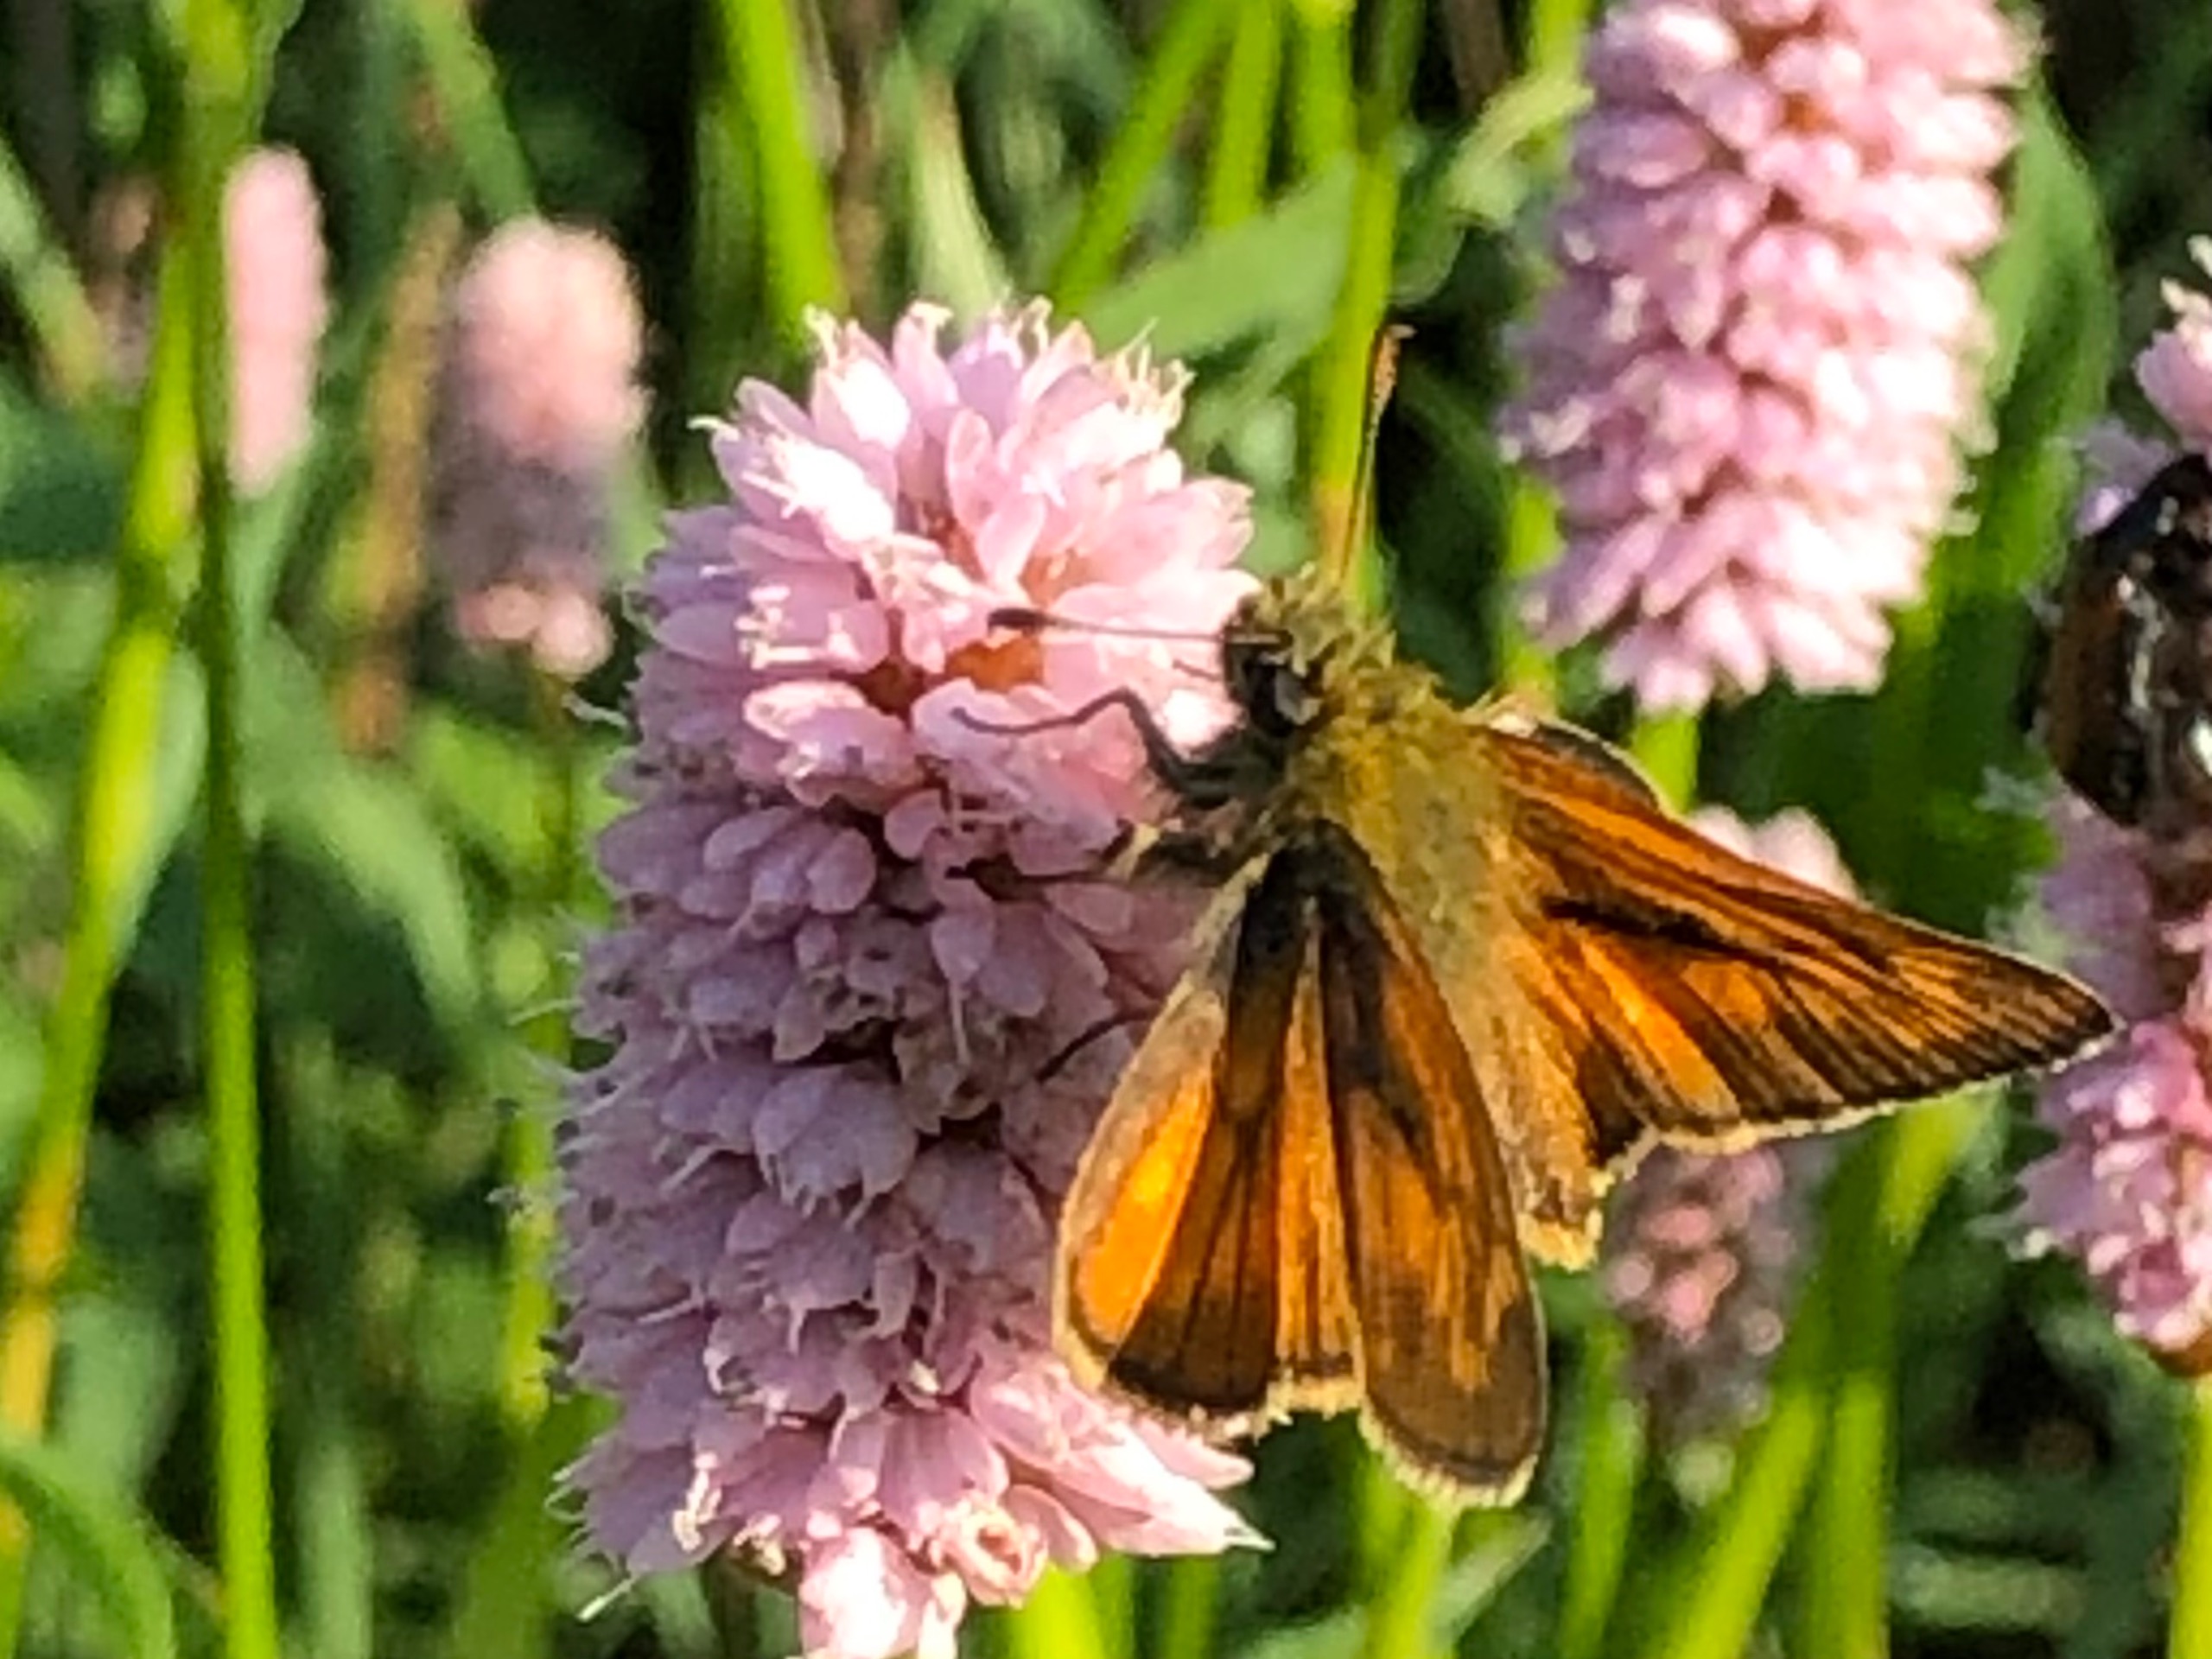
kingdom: Animalia
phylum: Arthropoda
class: Insecta
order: Lepidoptera
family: Hesperiidae
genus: Ochlodes
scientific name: Ochlodes venata
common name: Stor bredpande
